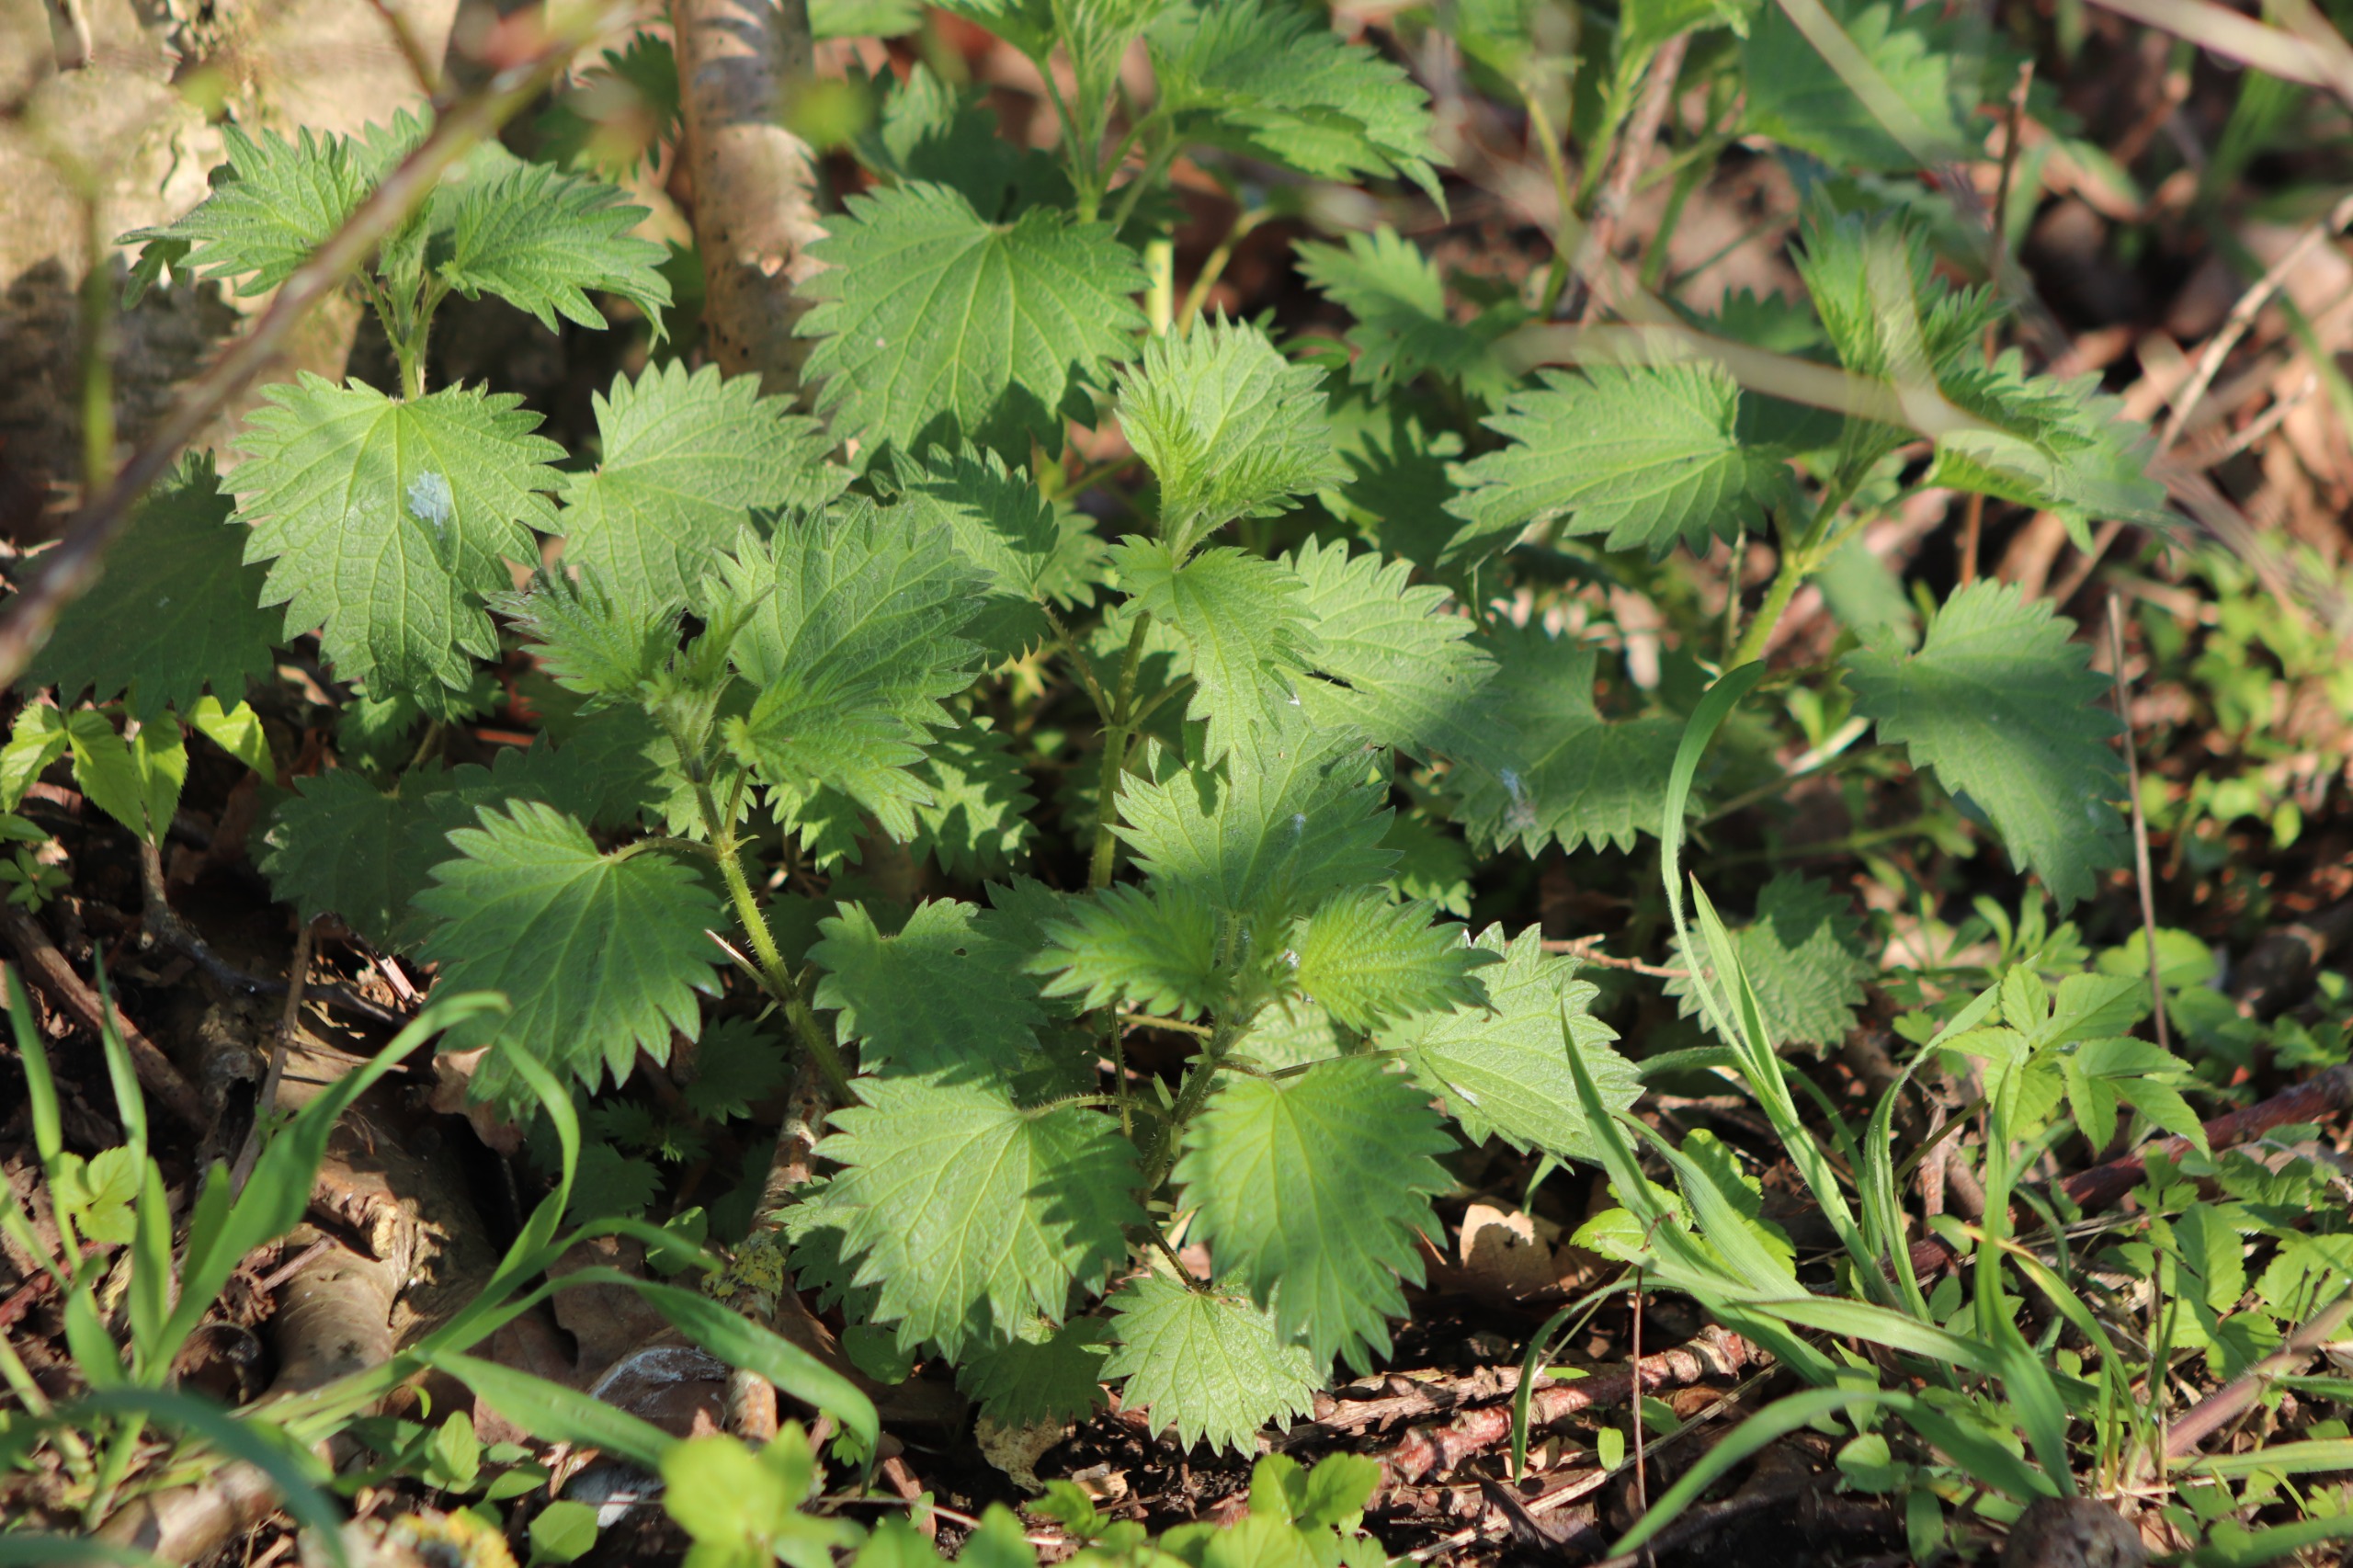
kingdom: Plantae
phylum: Tracheophyta
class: Magnoliopsida
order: Rosales
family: Urticaceae
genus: Urtica
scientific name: Urtica dioica
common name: Stor nælde
